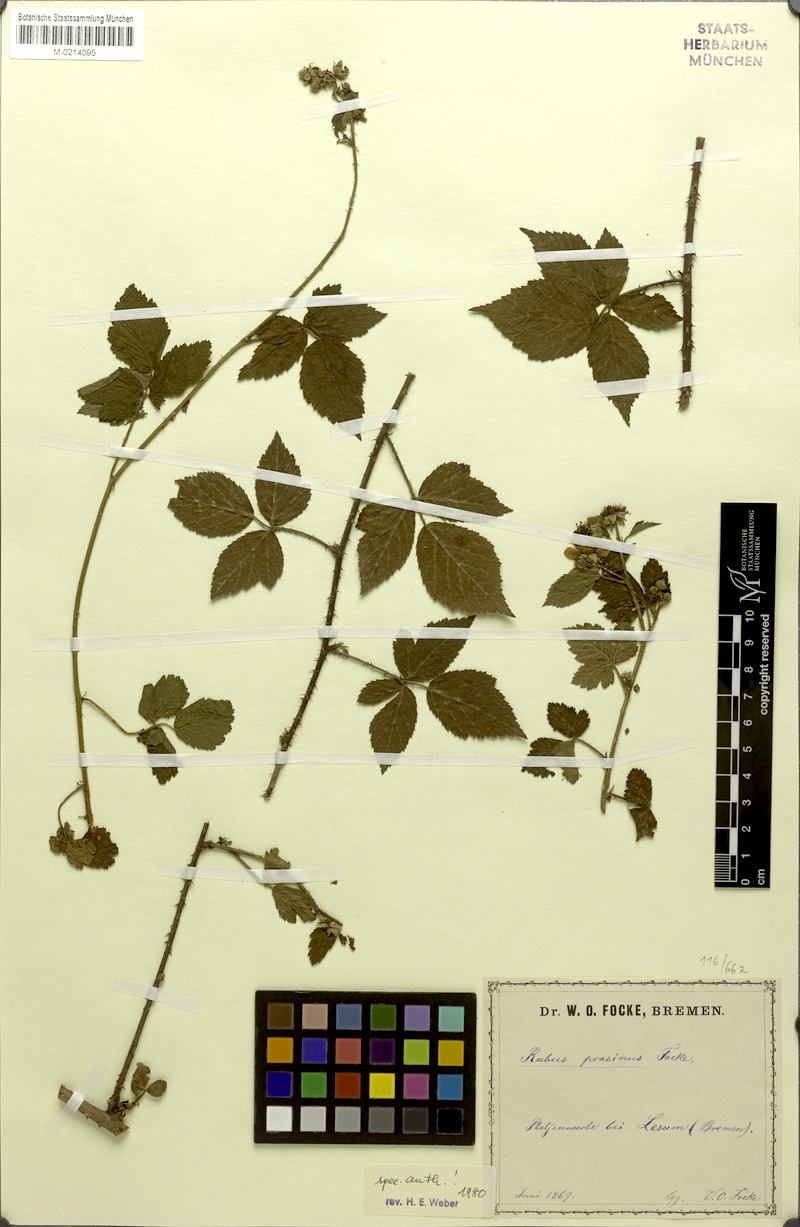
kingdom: Plantae
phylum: Tracheophyta
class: Magnoliopsida
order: Rosales
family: Rosaceae
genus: Rubus
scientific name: Rubus praetextus
